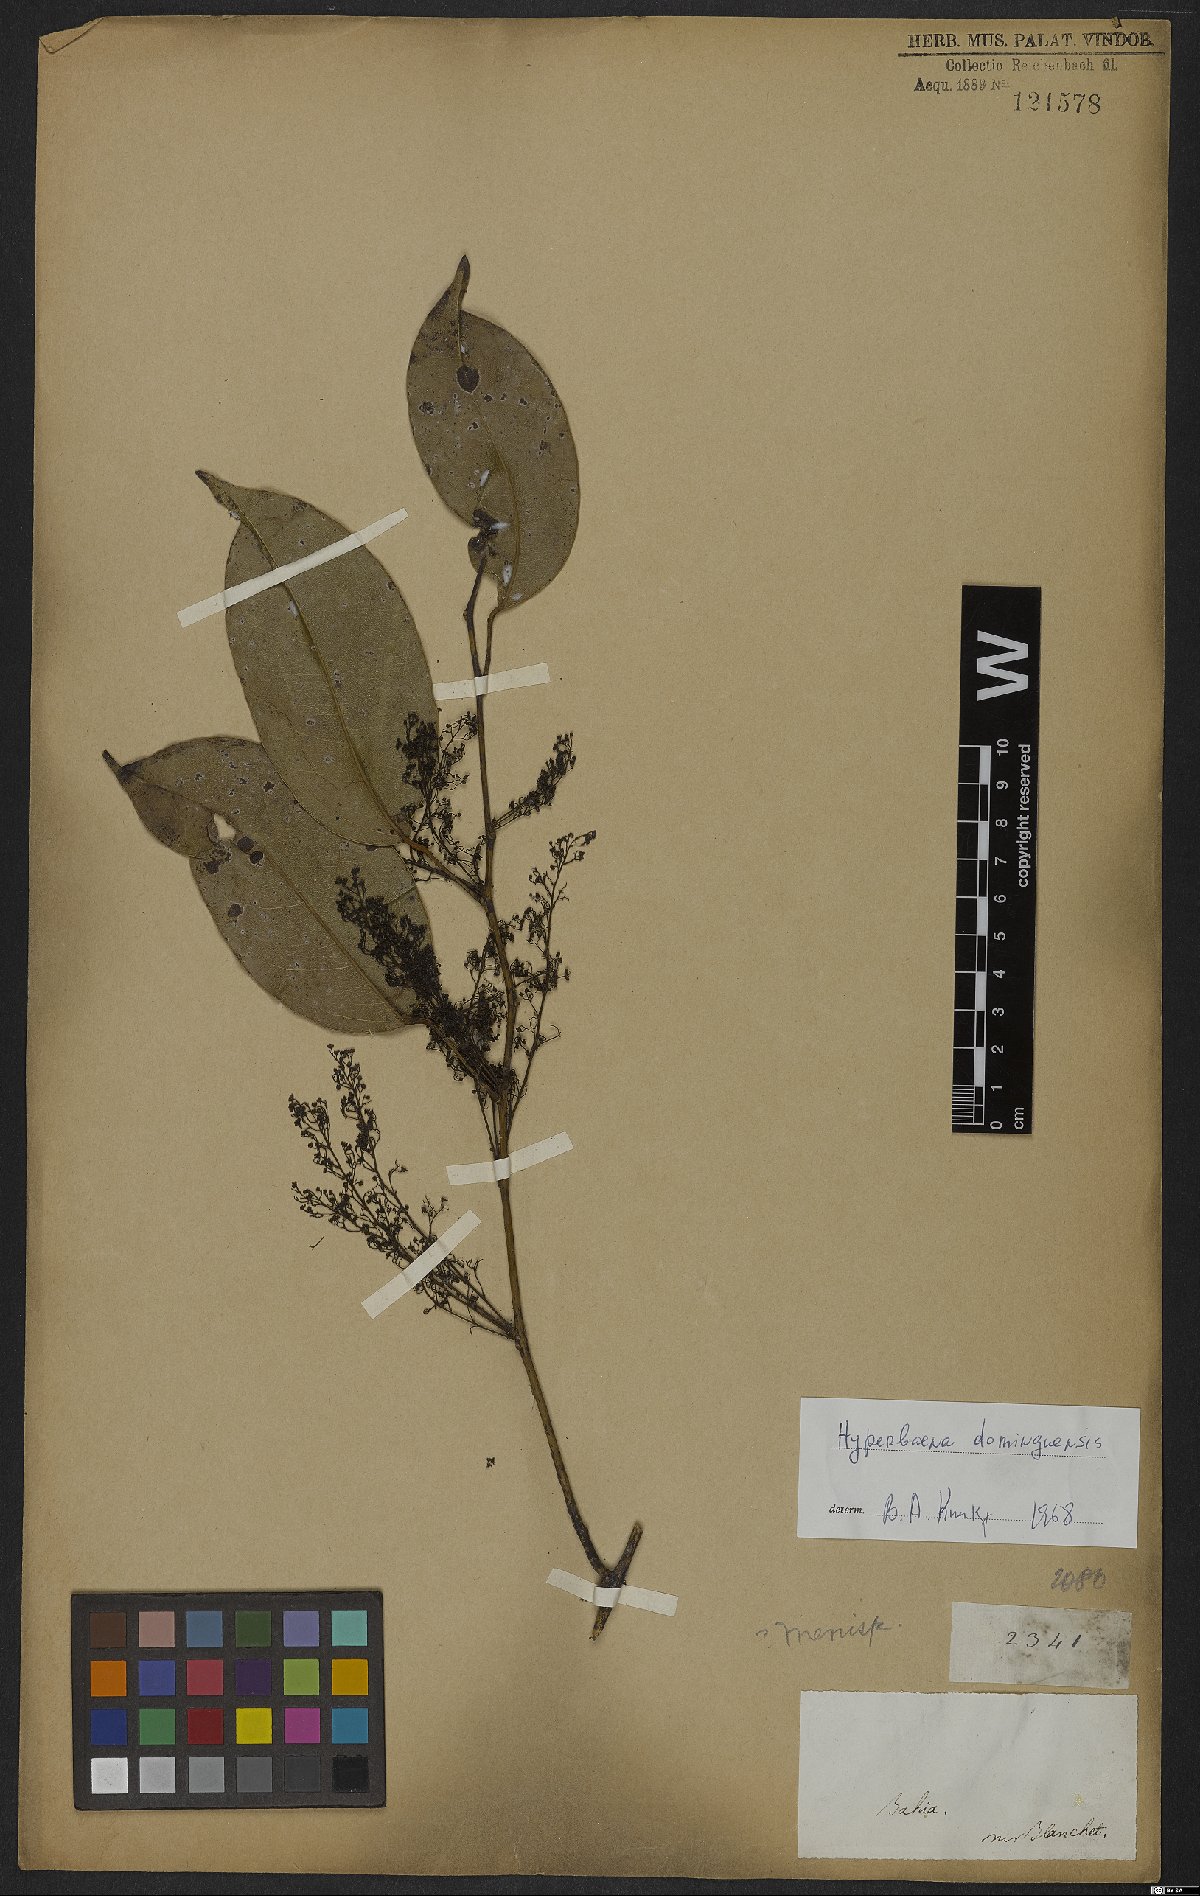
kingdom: Plantae
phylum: Tracheophyta
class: Magnoliopsida
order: Ranunculales
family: Menispermaceae
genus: Hyperbaena
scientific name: Hyperbaena domingensis
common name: Forest snakevine
